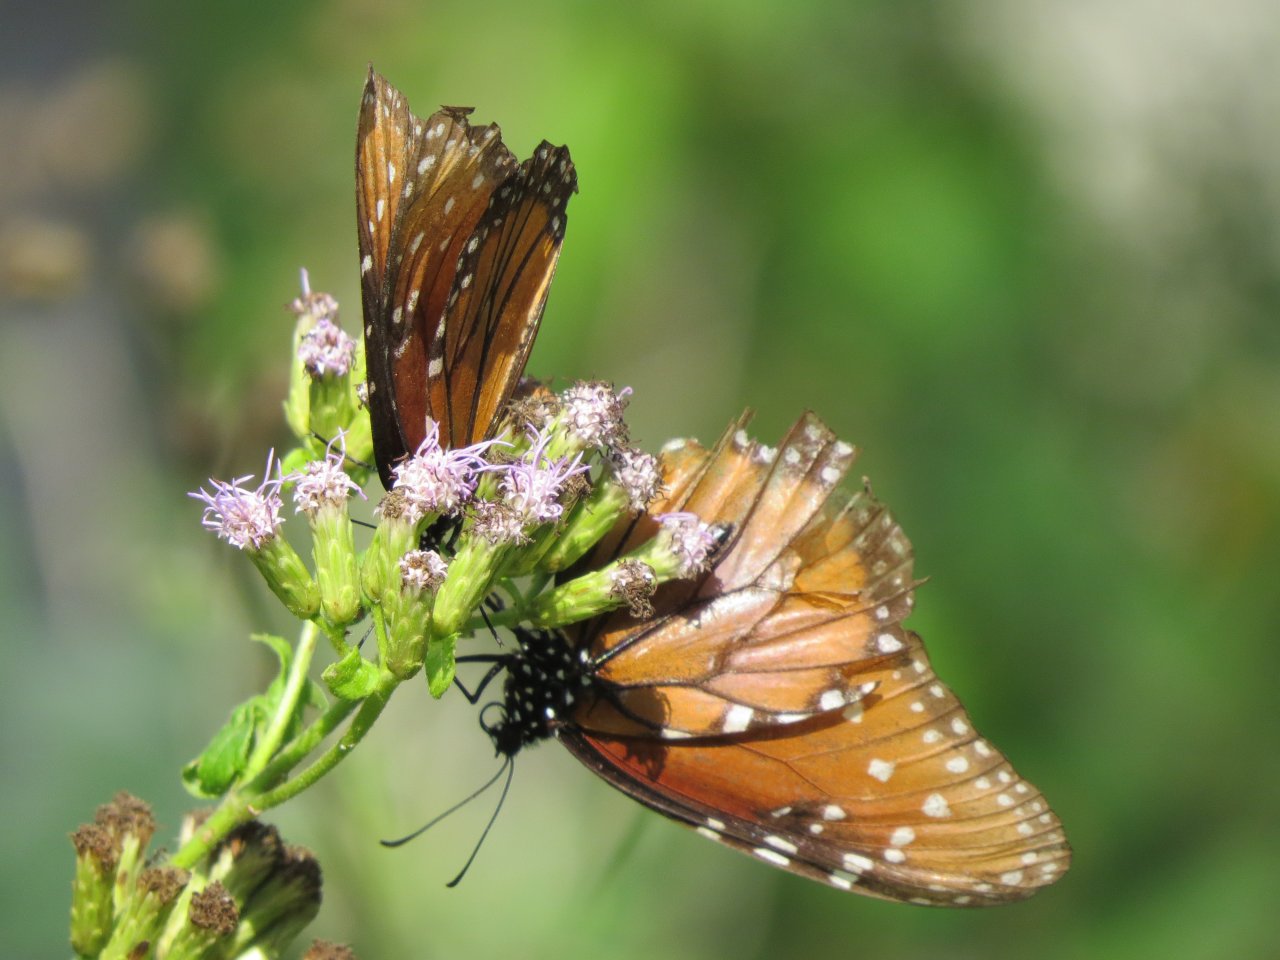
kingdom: Animalia
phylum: Arthropoda
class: Insecta
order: Lepidoptera
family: Nymphalidae
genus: Danaus
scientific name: Danaus gilippus
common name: Queen
